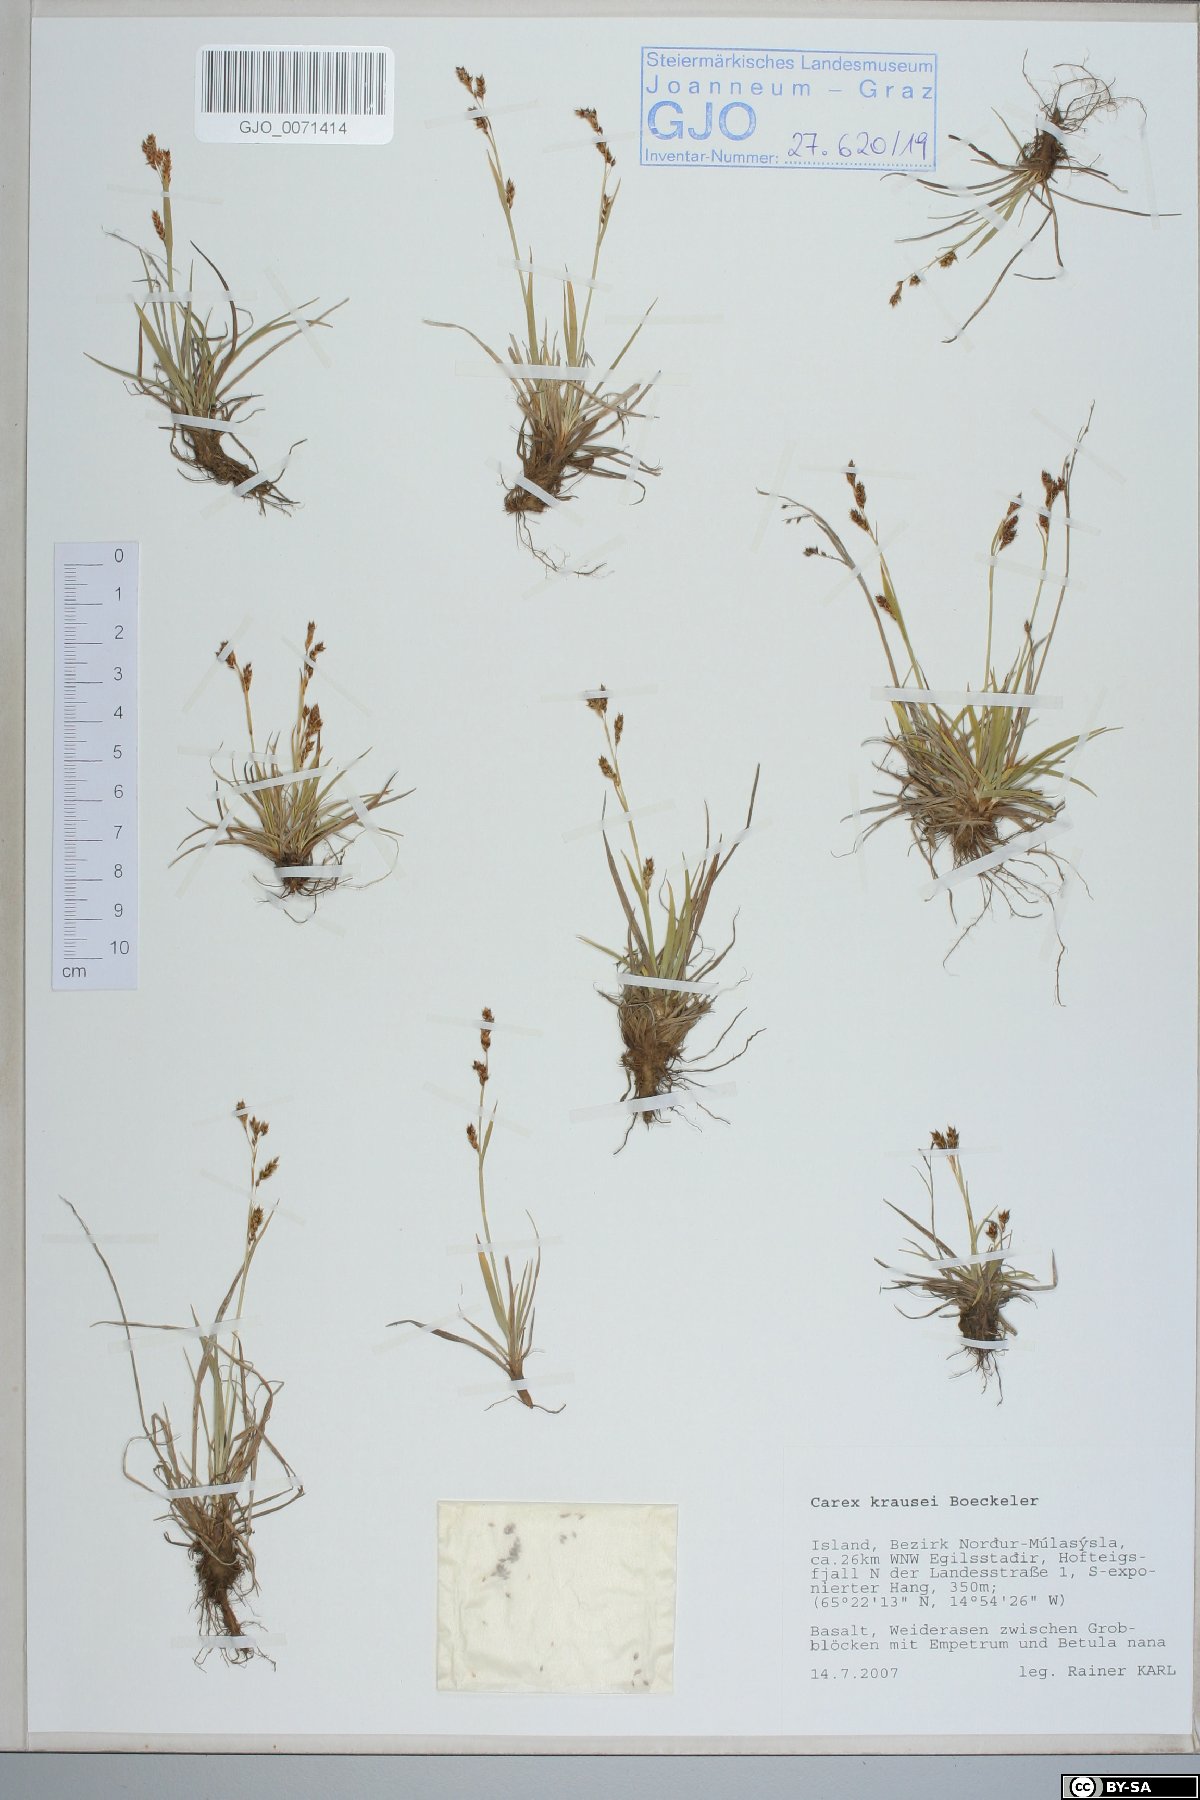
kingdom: Plantae
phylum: Tracheophyta
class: Liliopsida
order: Poales
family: Cyperaceae
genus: Carex
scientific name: Carex krausei
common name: Krause's sedge
